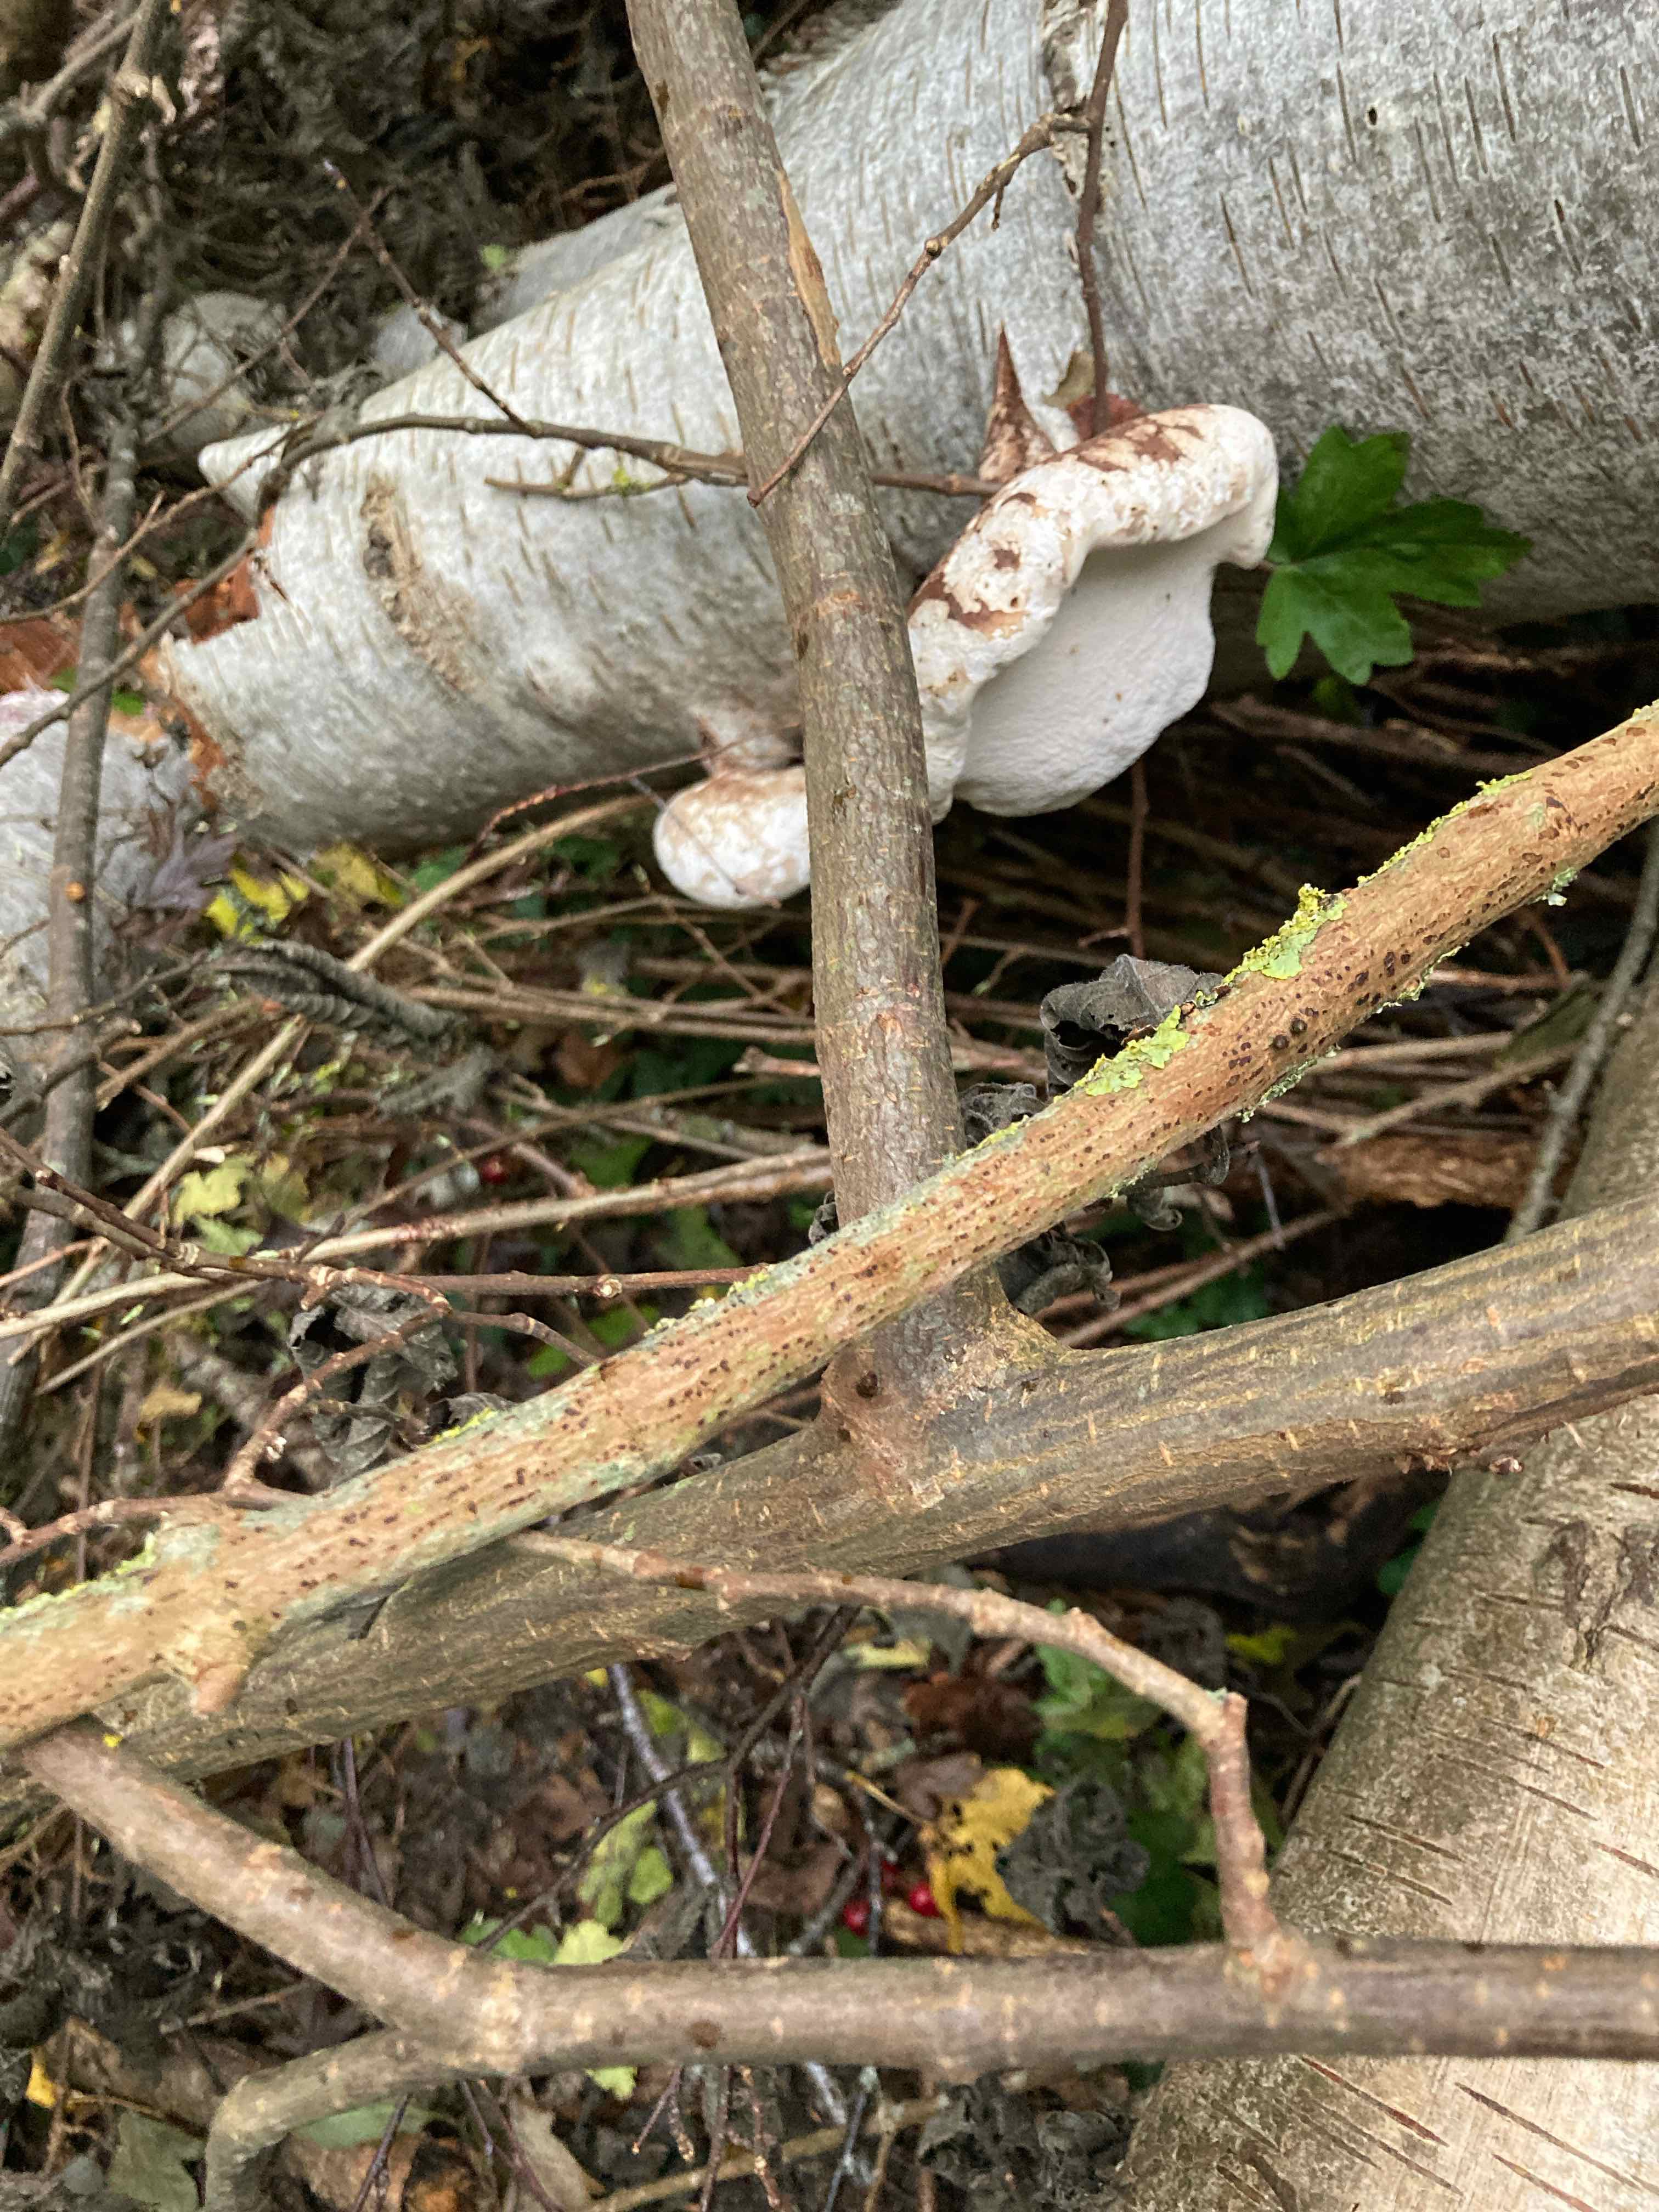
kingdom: Fungi
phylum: Basidiomycota
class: Agaricomycetes
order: Polyporales
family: Fomitopsidaceae
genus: Fomitopsis
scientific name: Fomitopsis betulina
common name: birkeporesvamp
